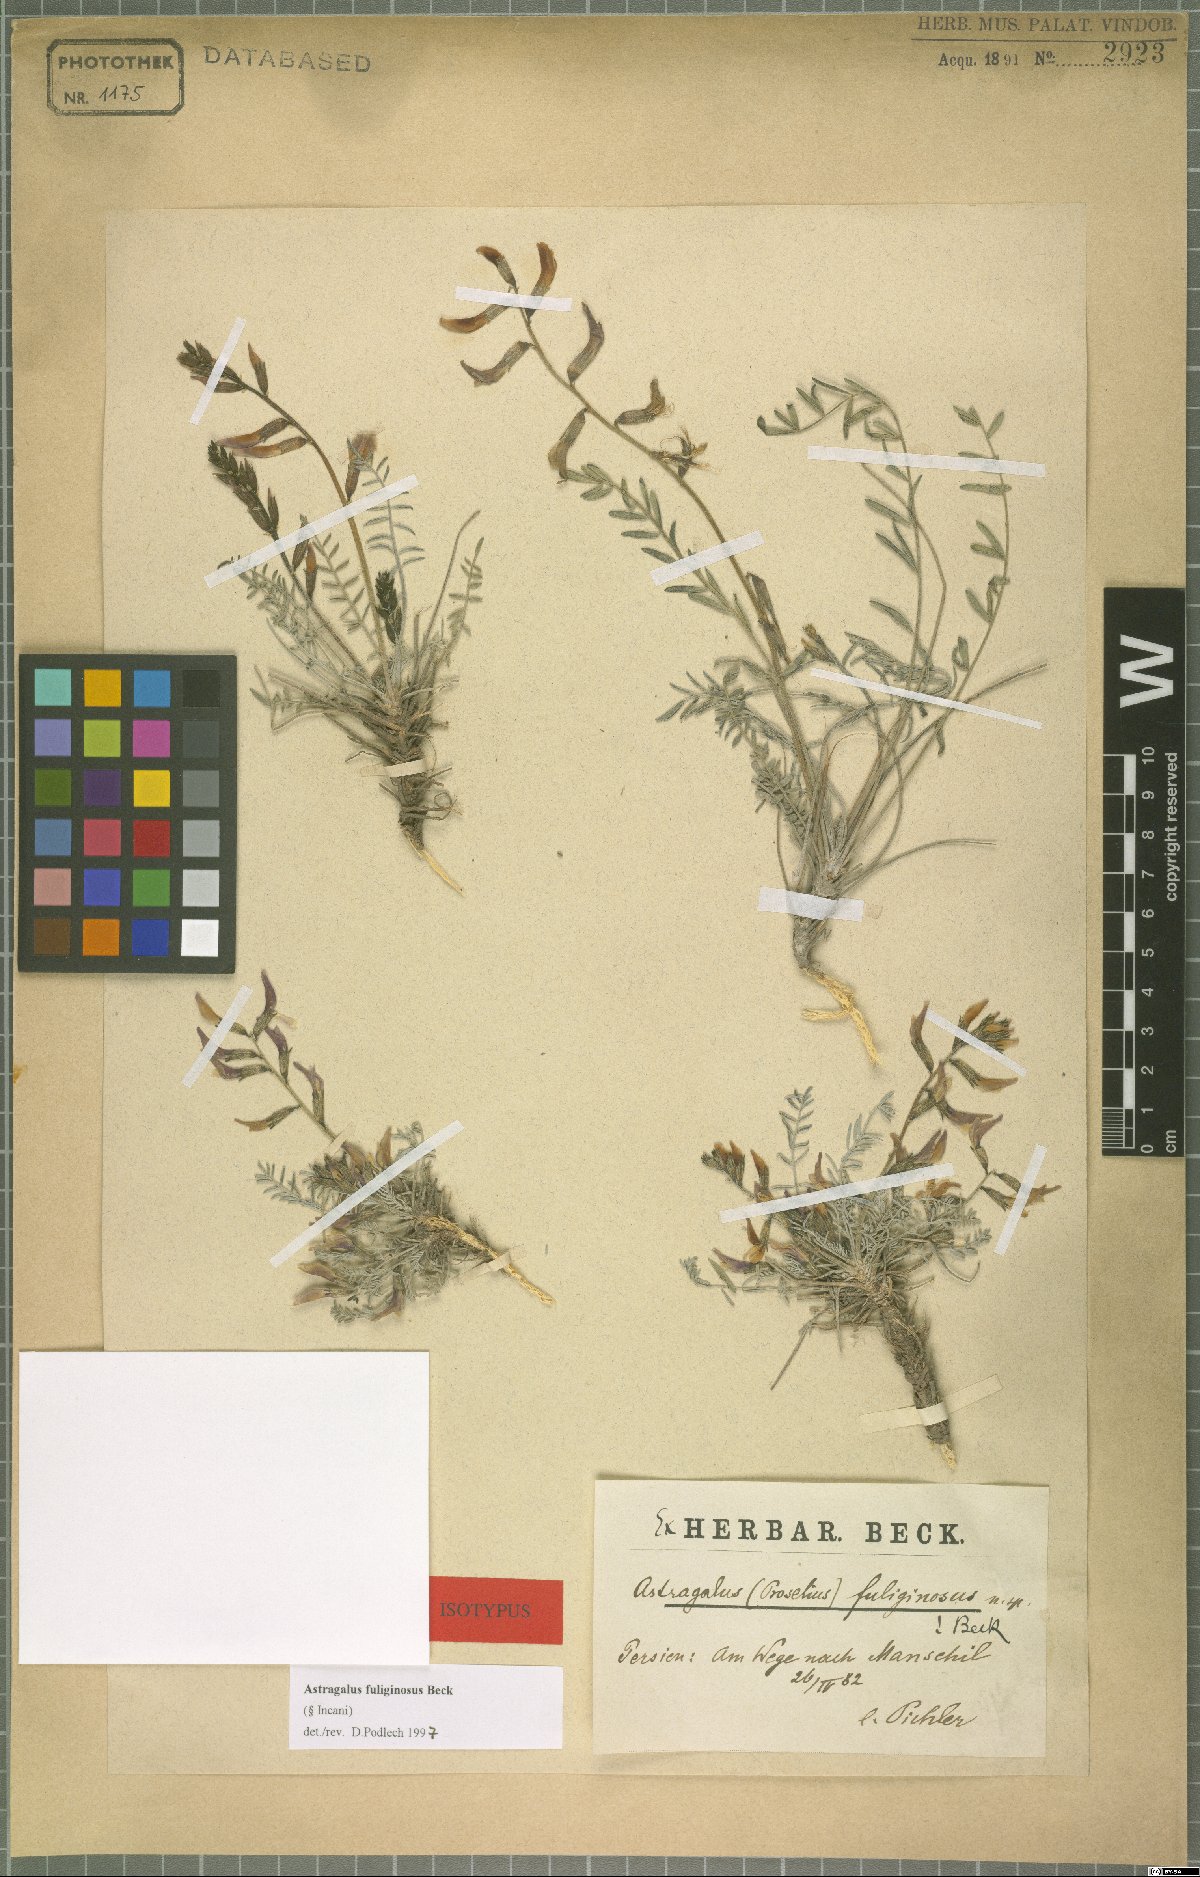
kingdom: Plantae
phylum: Tracheophyta
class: Magnoliopsida
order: Fabales
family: Fabaceae
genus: Astragalus
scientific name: Astragalus fuliginosus
